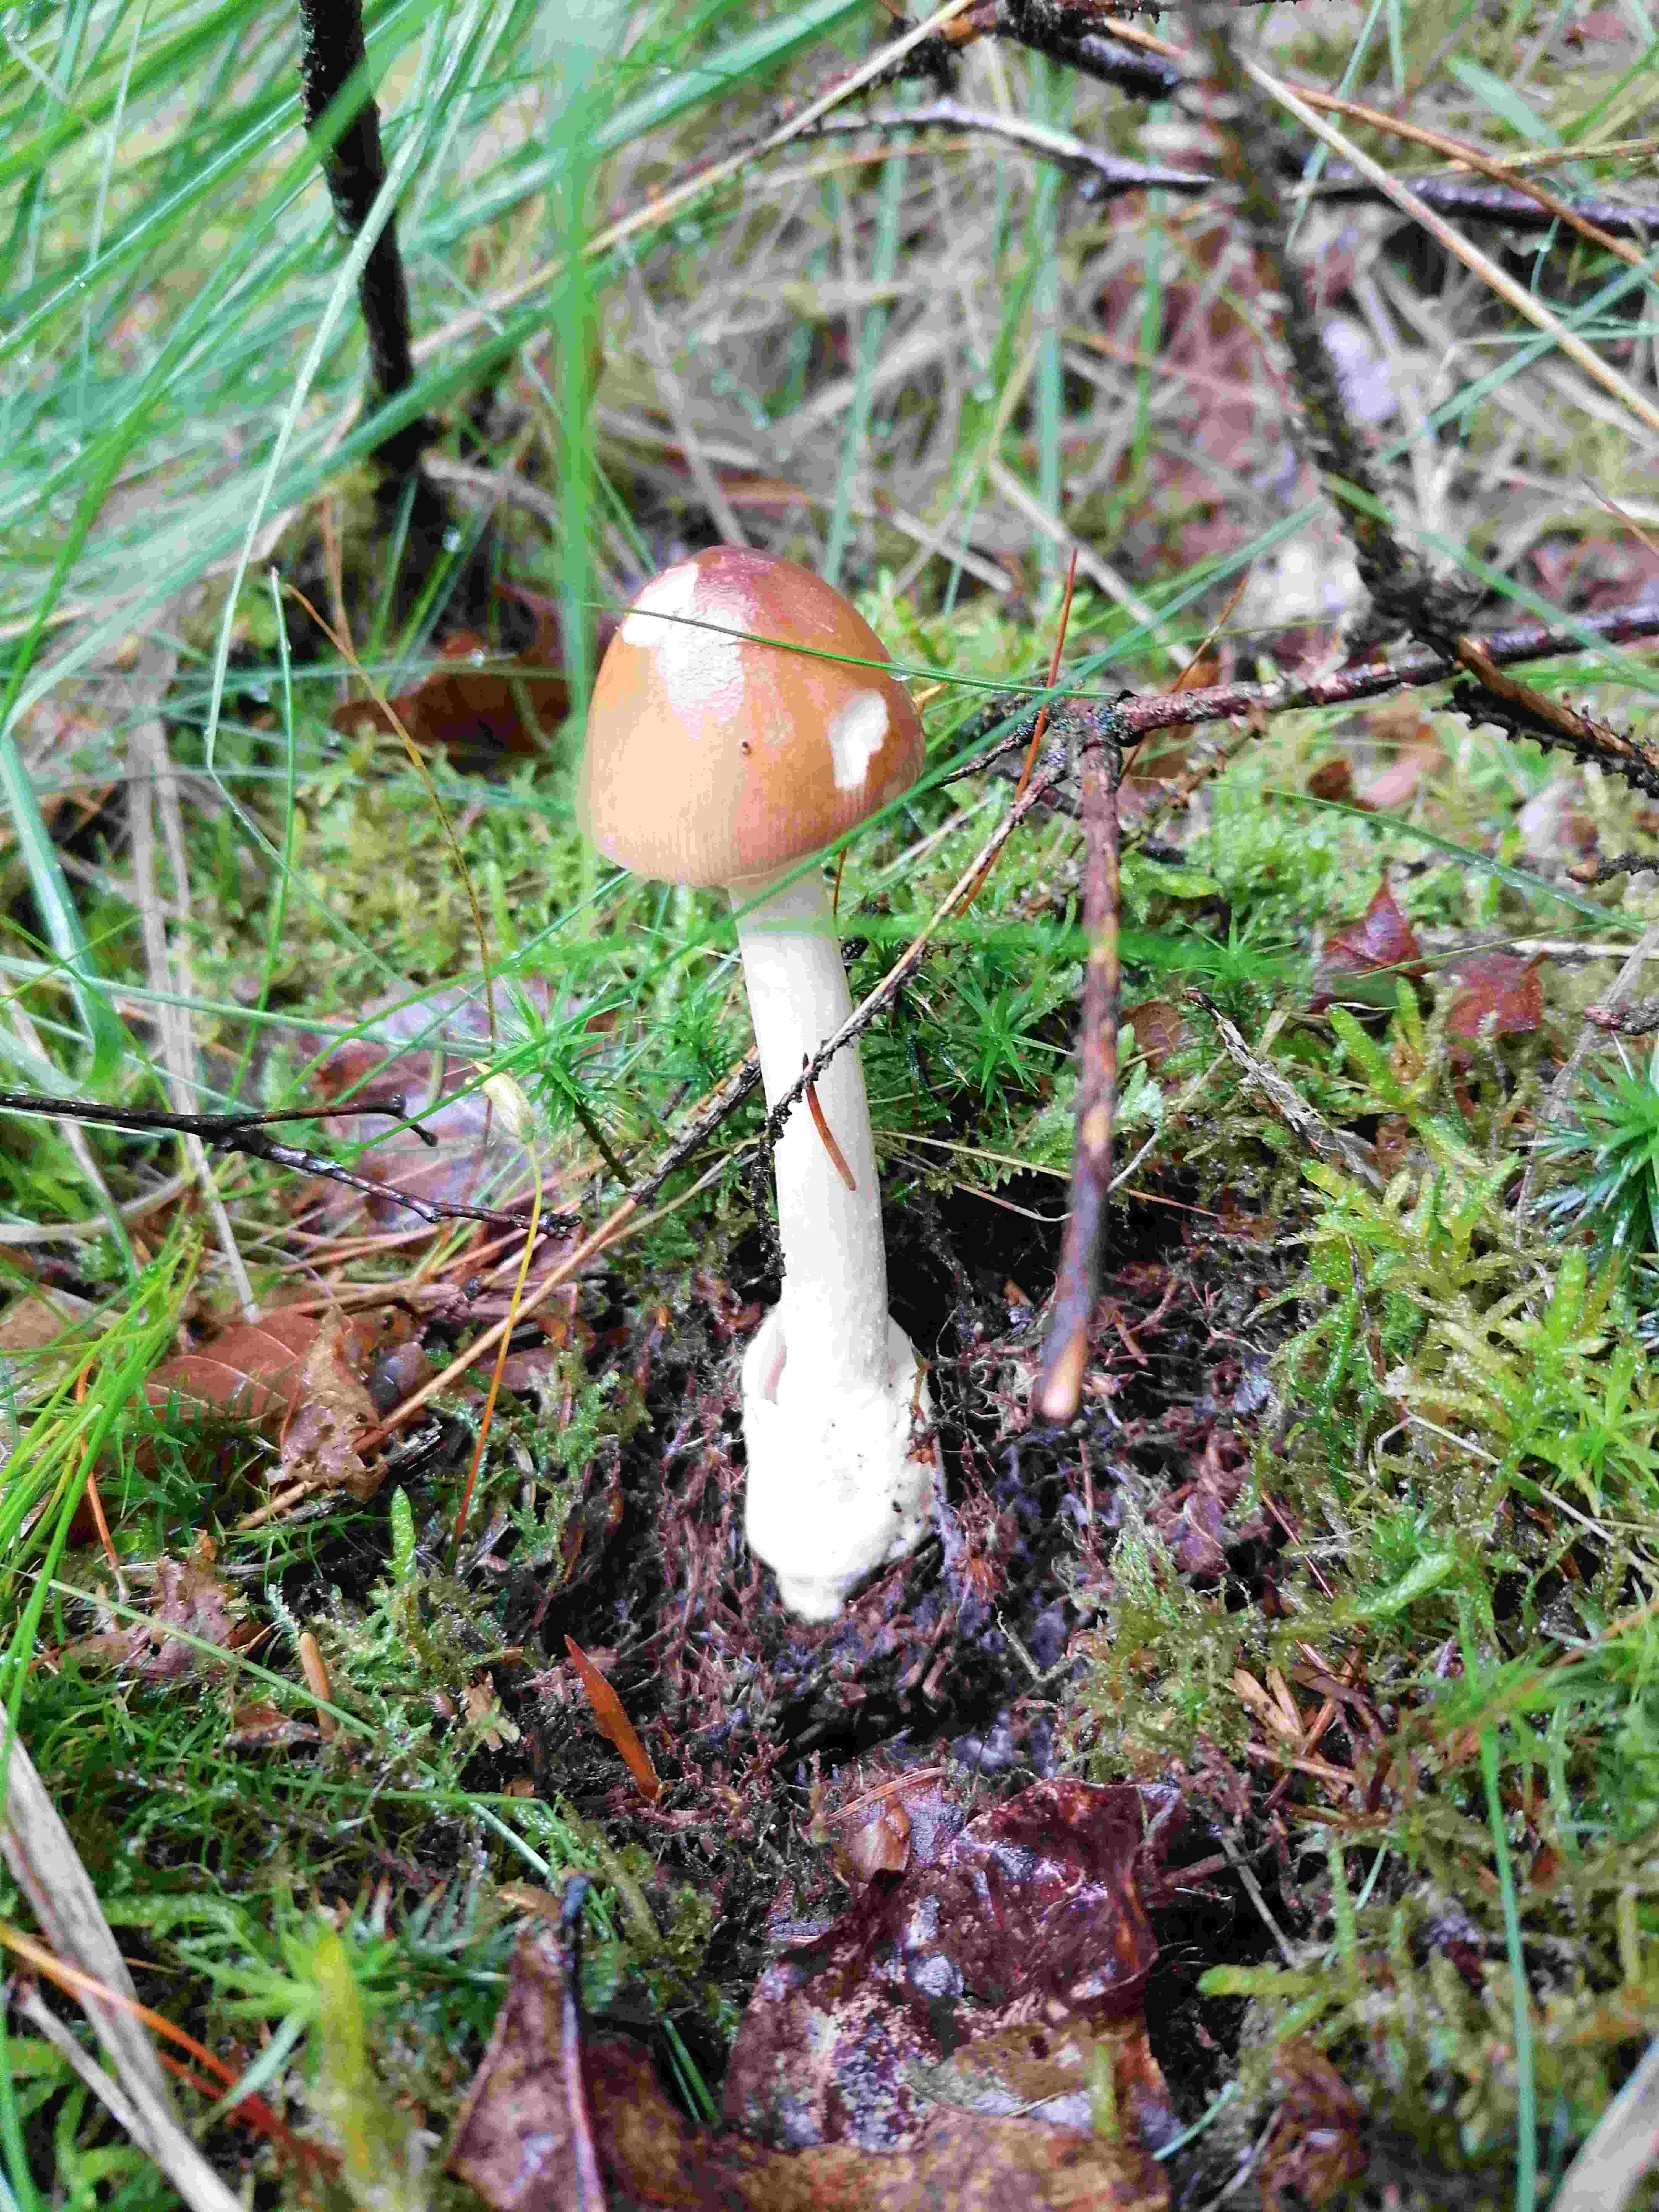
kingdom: Fungi
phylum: Basidiomycota
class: Agaricomycetes
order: Agaricales
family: Amanitaceae
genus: Amanita
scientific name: Amanita fulva
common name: brun kam-fluesvamp
